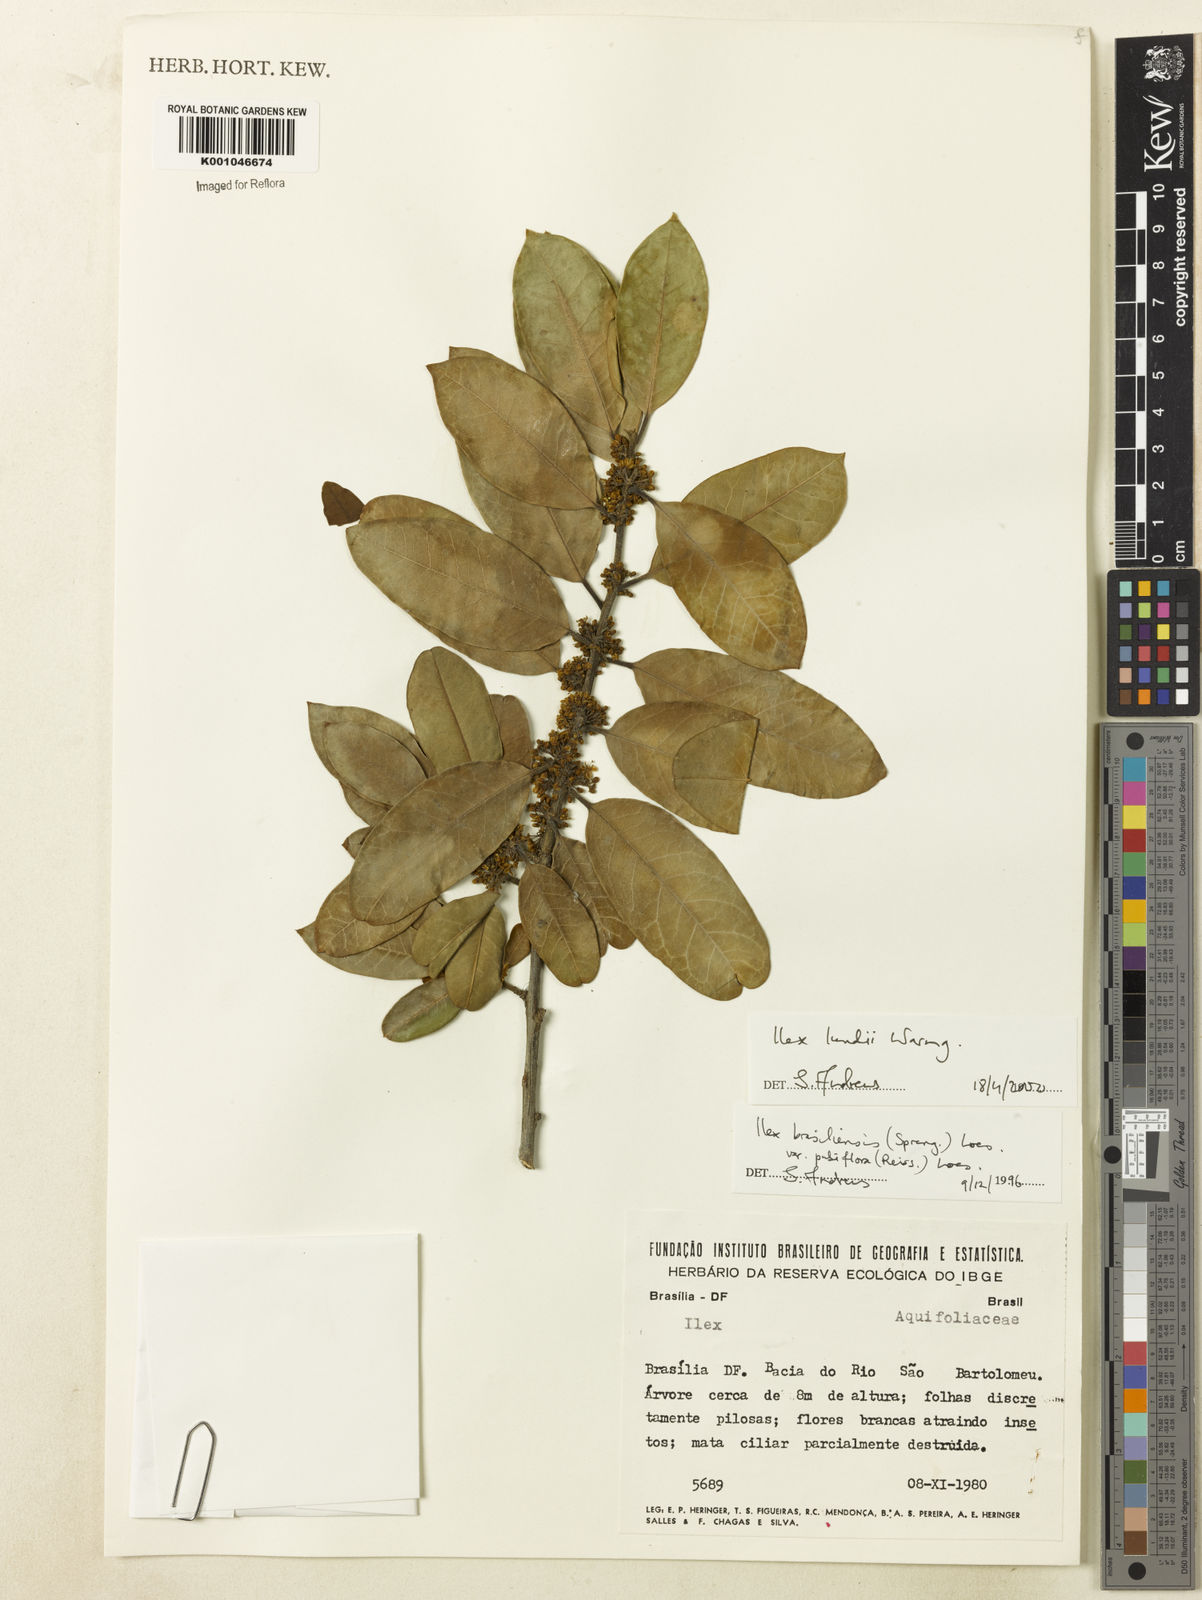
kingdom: Plantae
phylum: Tracheophyta
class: Magnoliopsida
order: Aquifoliales
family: Aquifoliaceae
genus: Ilex
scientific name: Ilex lundii
